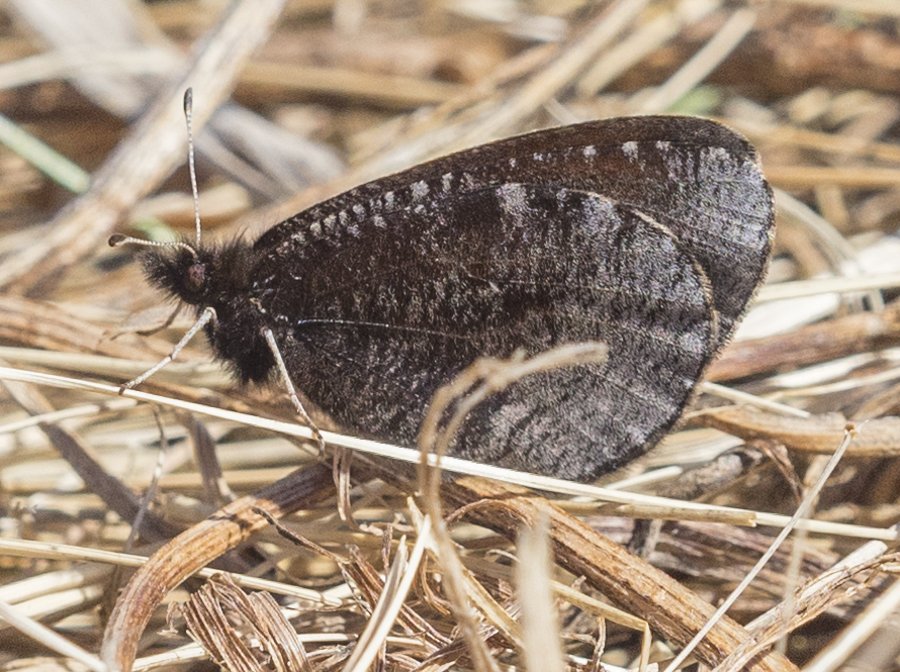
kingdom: Animalia
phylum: Arthropoda
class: Insecta
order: Lepidoptera
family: Nymphalidae
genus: Erebia
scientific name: Erebia discoidalis
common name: Red-disked Alpine
